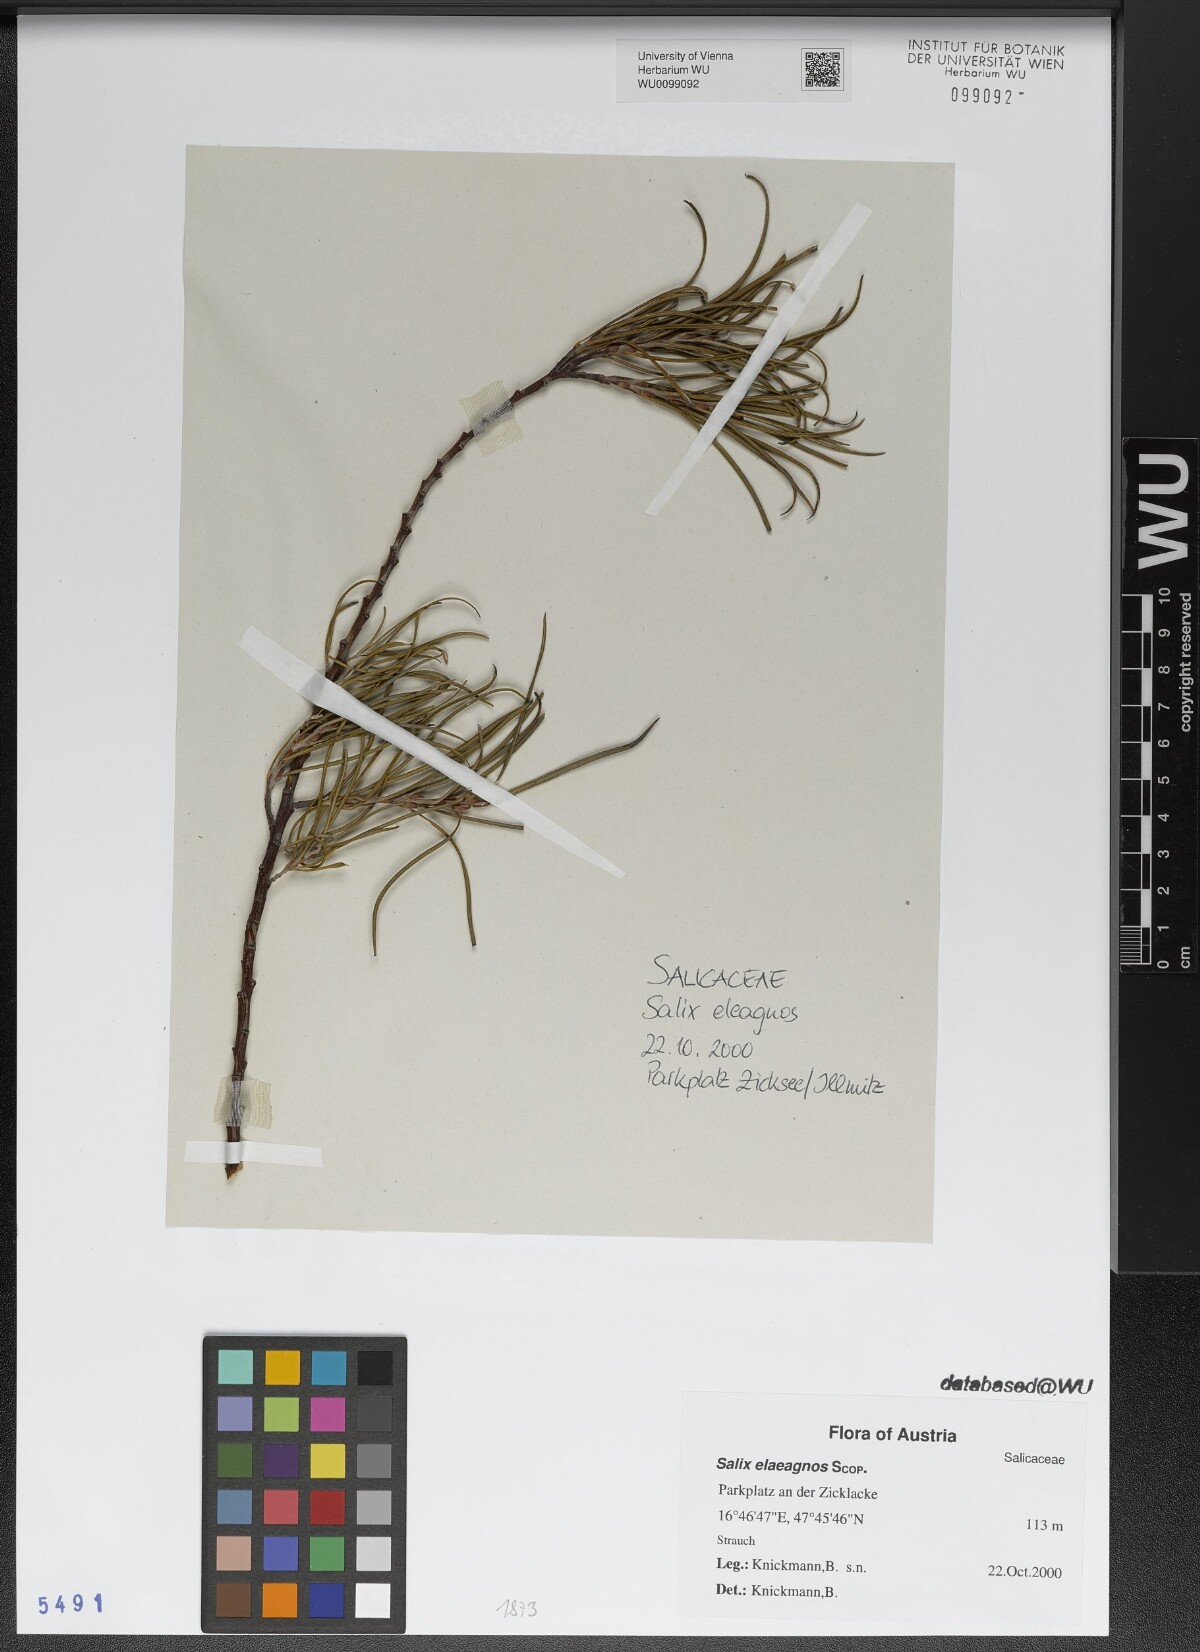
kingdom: Plantae
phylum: Tracheophyta
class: Magnoliopsida
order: Malpighiales
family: Salicaceae
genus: Salix
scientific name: Salix eleagnos
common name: Elaeagnus willow
